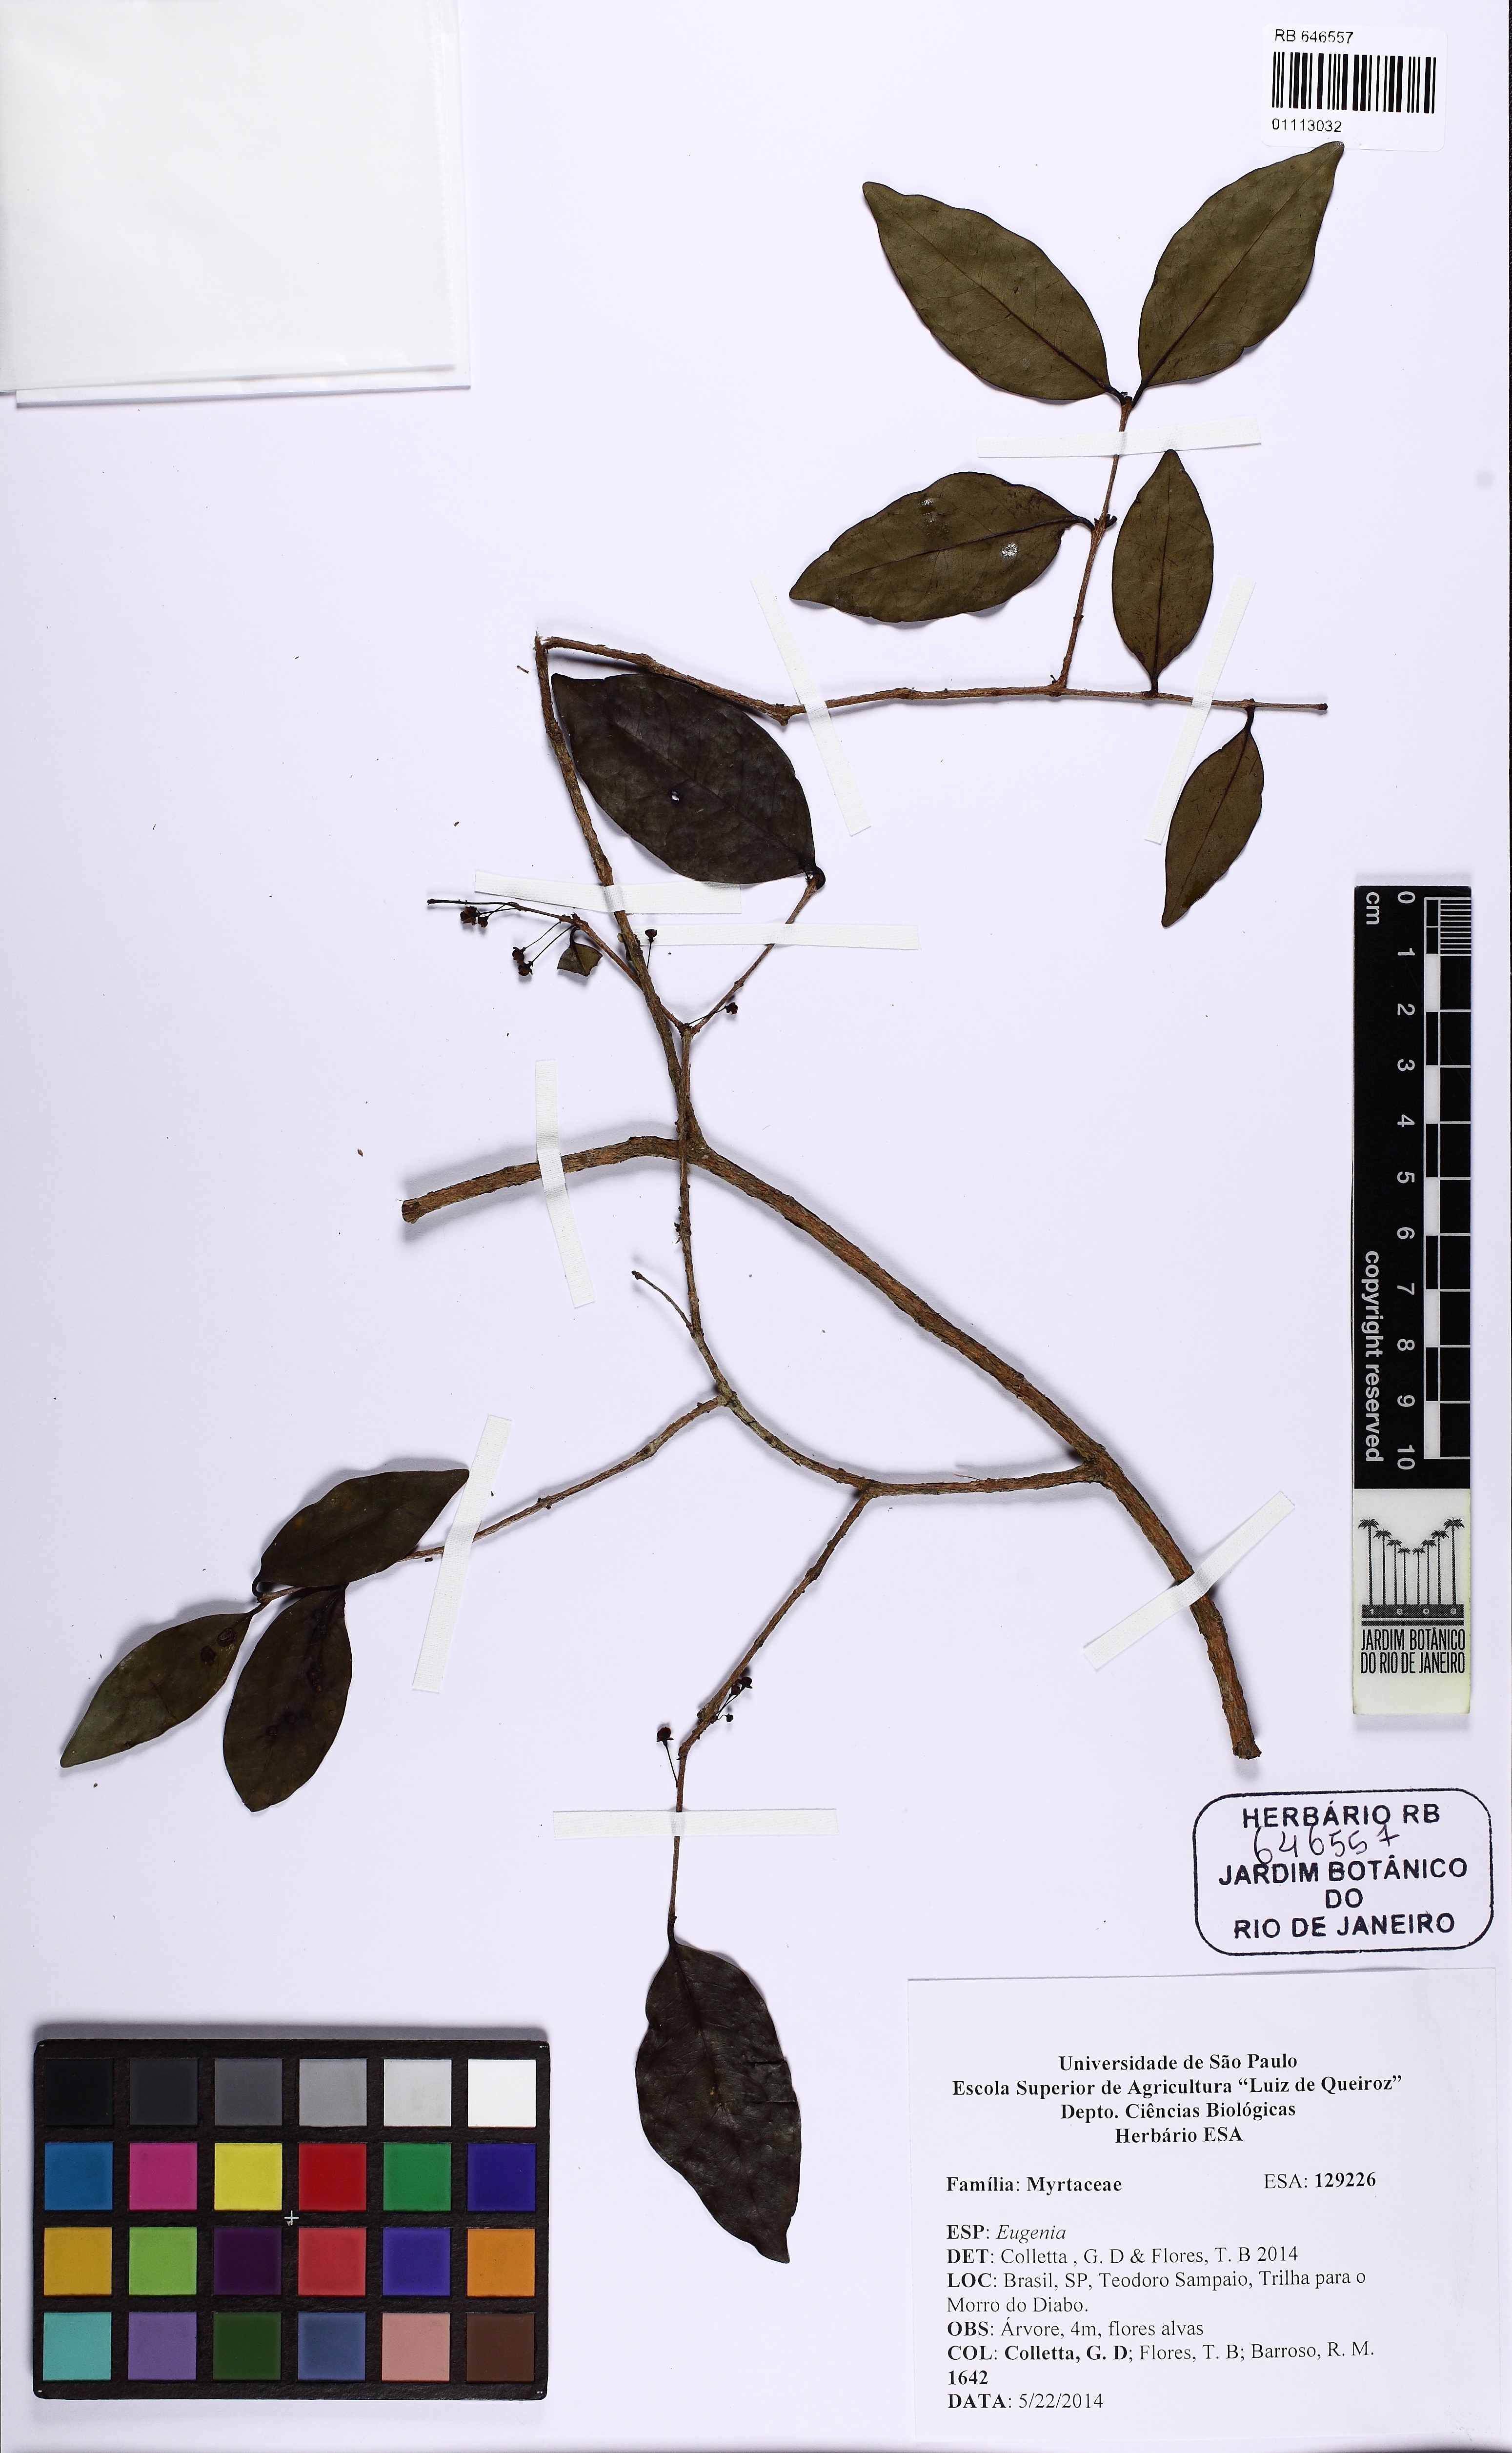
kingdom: Plantae
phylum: Tracheophyta
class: Magnoliopsida
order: Myrtales
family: Myrtaceae
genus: Eugenia
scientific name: Eugenia
